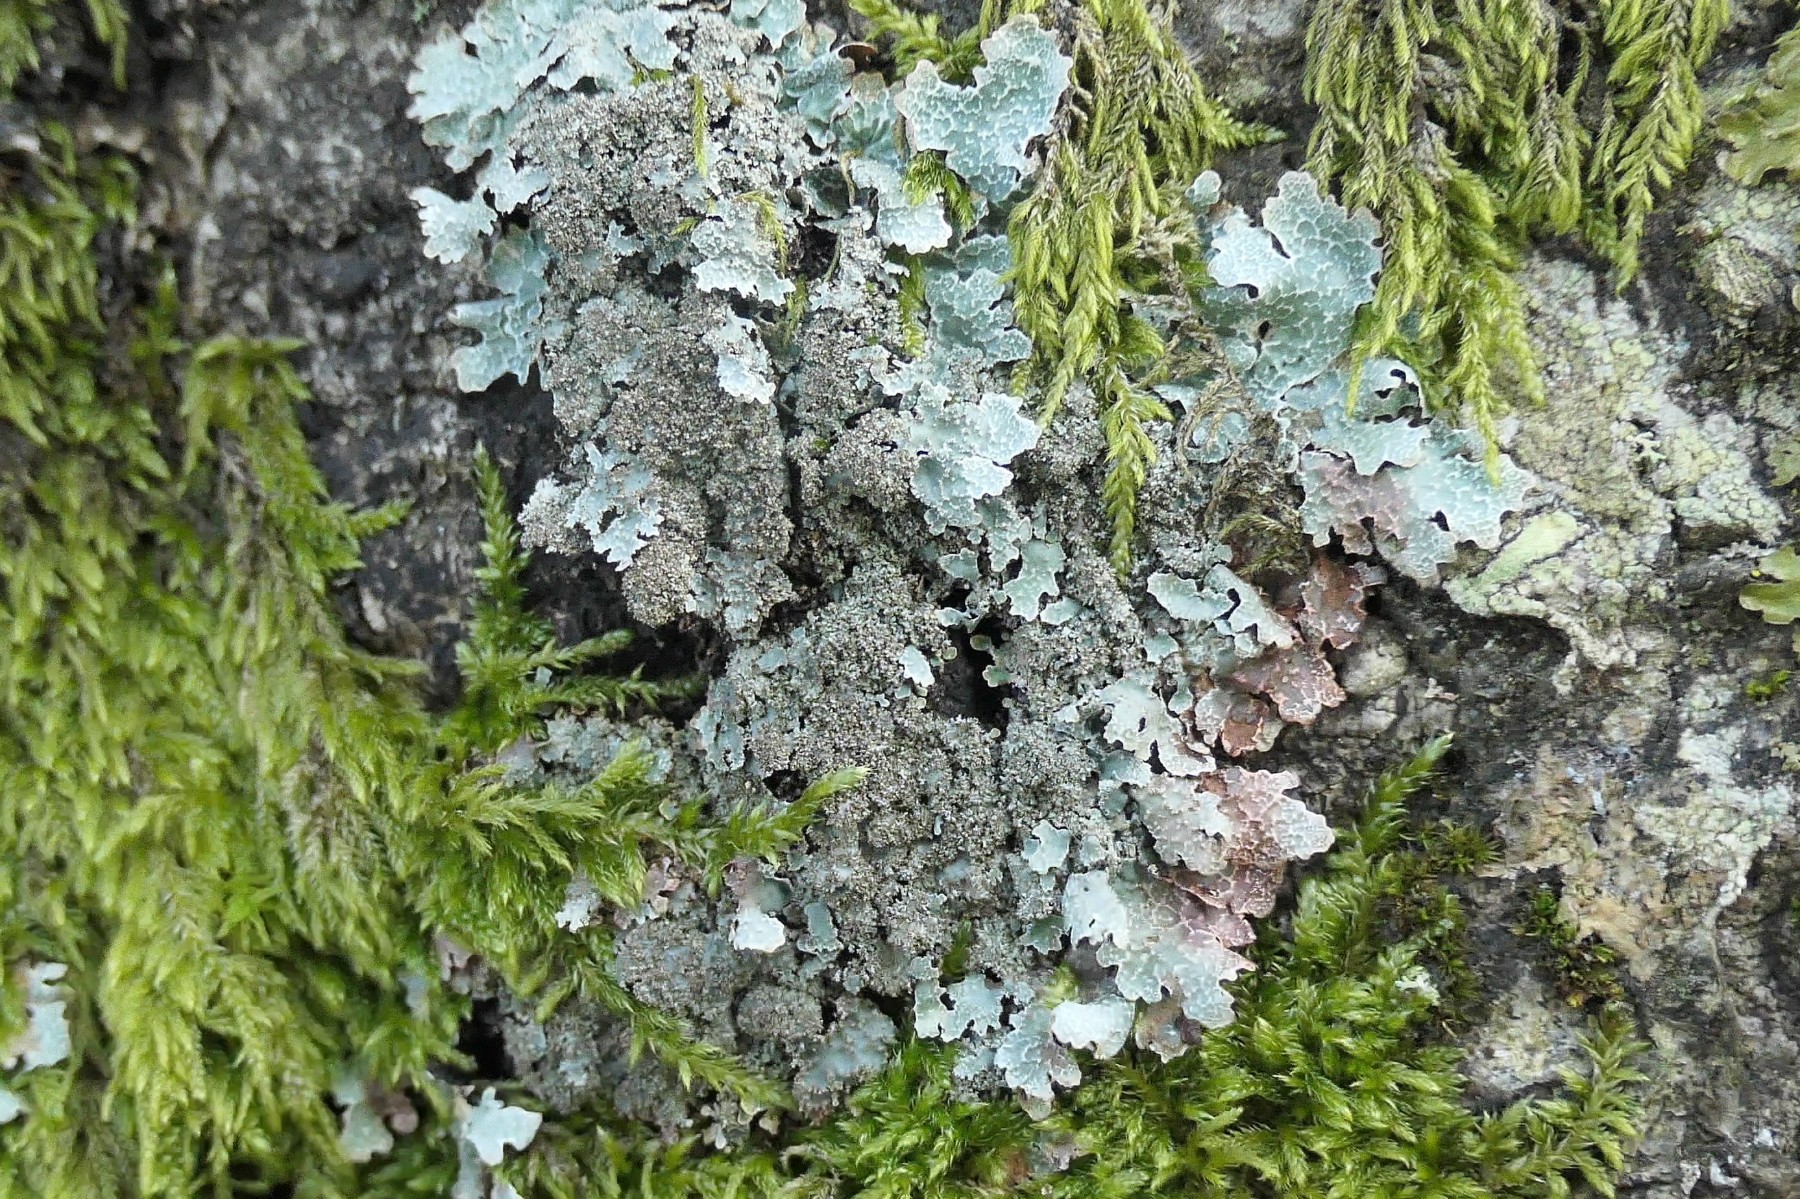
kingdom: Fungi
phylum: Ascomycota
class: Lecanoromycetes
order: Lecanorales
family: Parmeliaceae
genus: Parmelia
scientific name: Parmelia saxatilis
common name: farve-skållav
